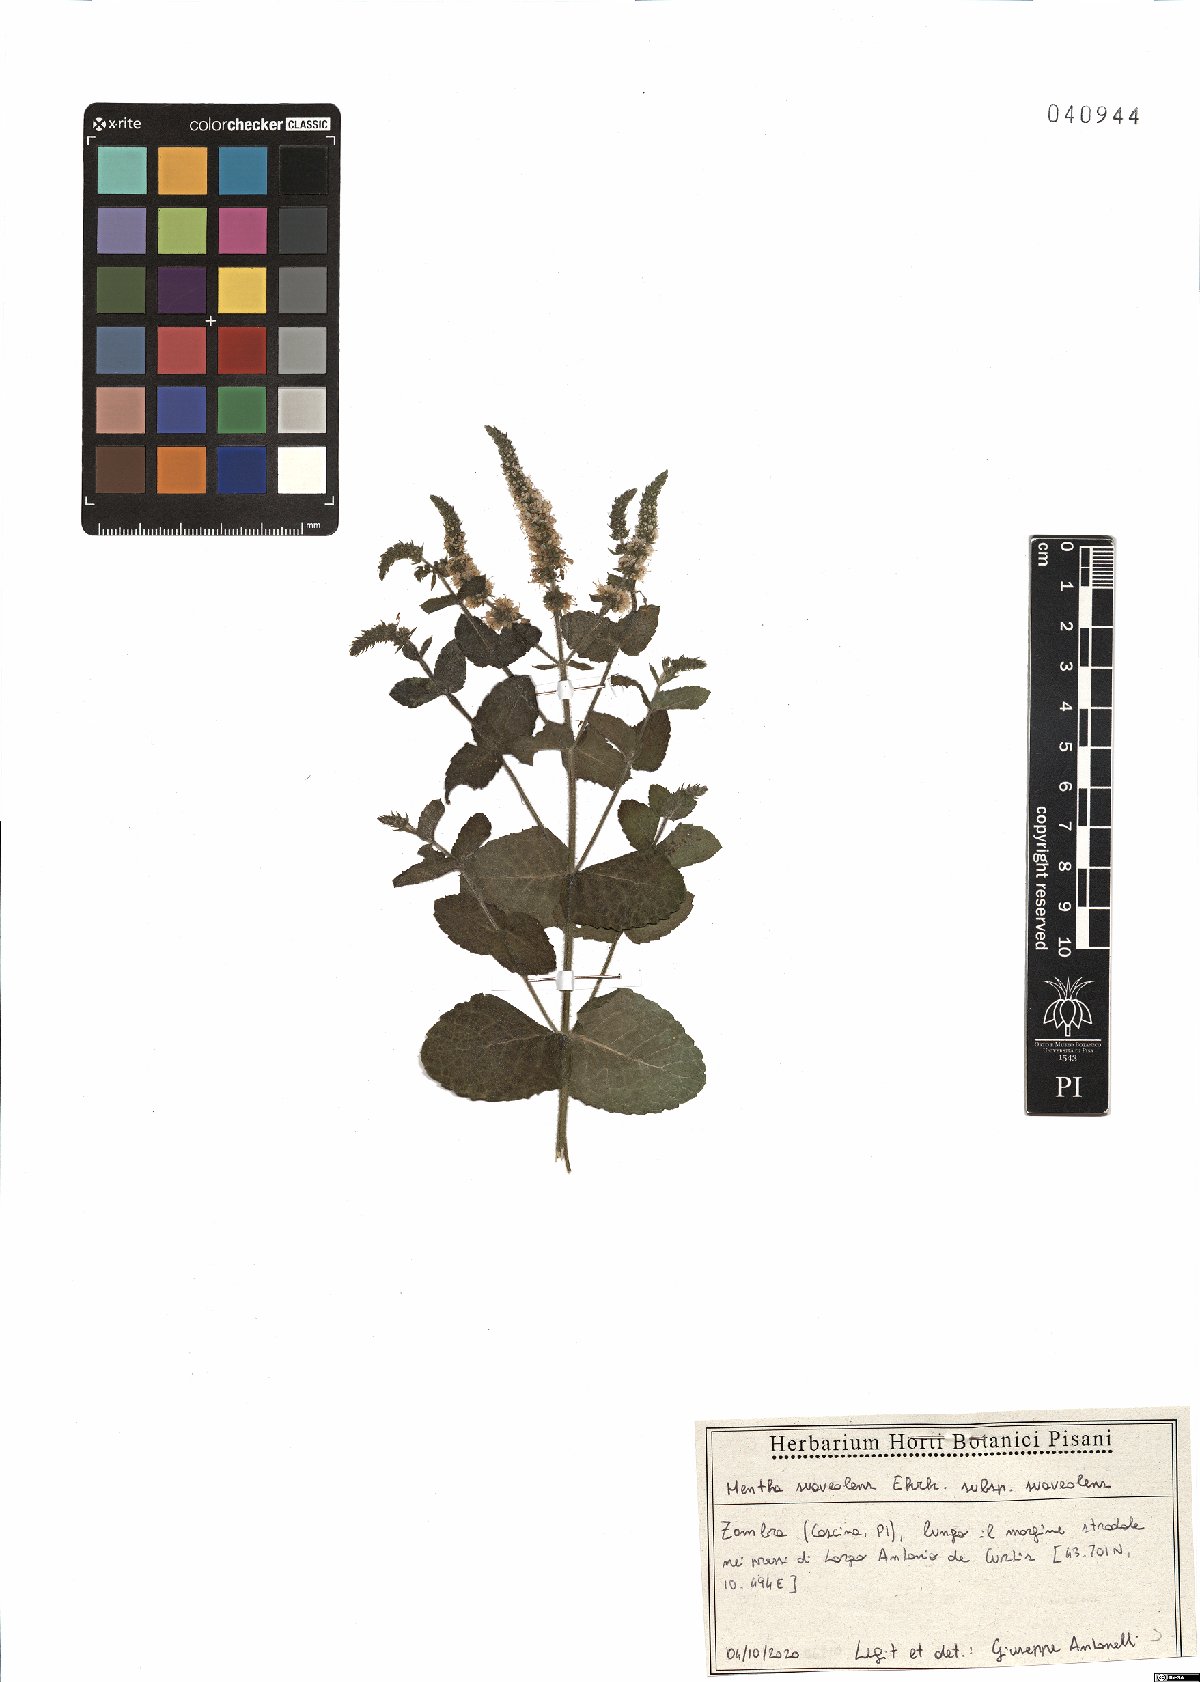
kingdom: Plantae
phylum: Tracheophyta
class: Magnoliopsida
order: Lamiales
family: Lamiaceae
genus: Mentha
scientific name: Mentha suaveolens
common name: Apple mint
